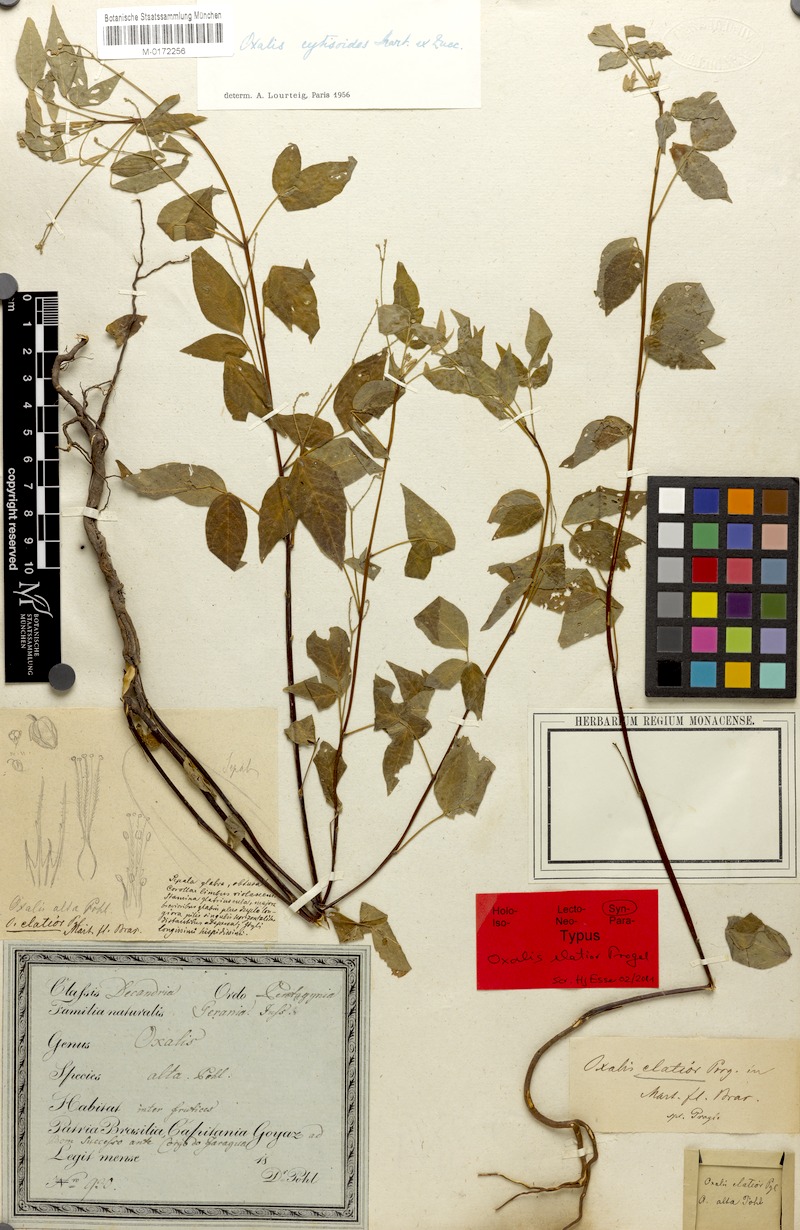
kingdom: Plantae
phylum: Tracheophyta
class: Magnoliopsida
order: Oxalidales
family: Oxalidaceae
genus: Oxalis
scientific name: Oxalis cytisoides
